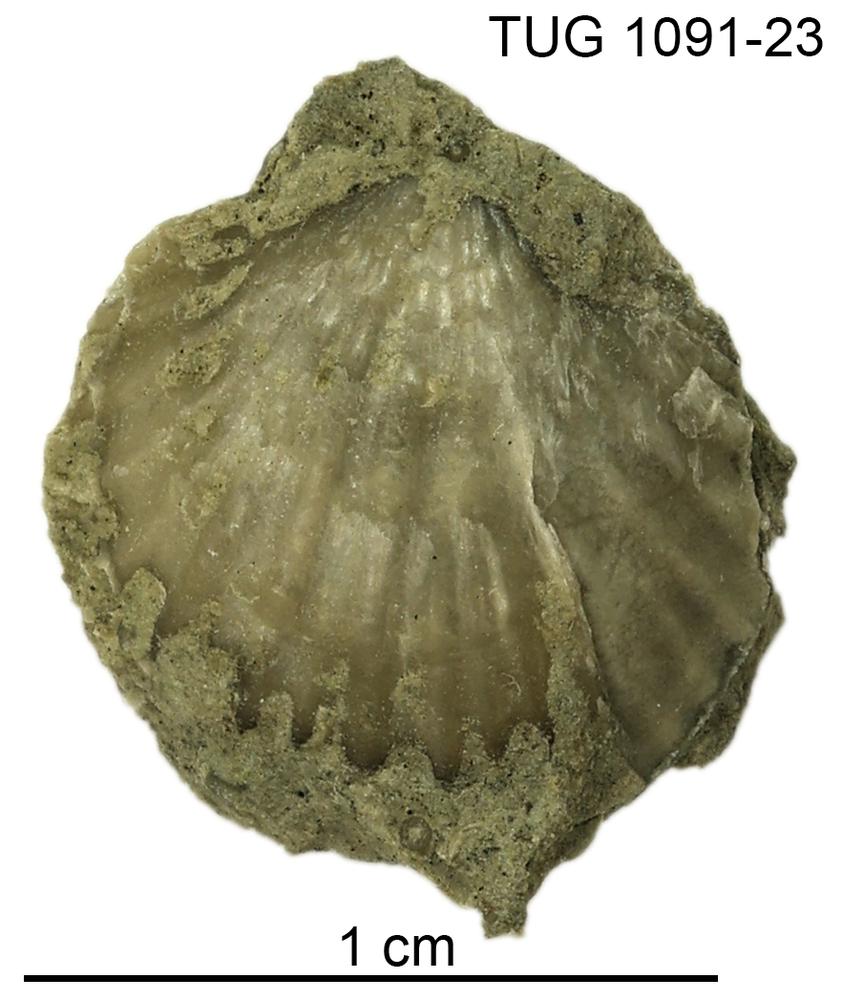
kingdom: Animalia
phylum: Brachiopoda
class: Rhynchonellata
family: Atrypidae
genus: Atrypa
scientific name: Atrypa
